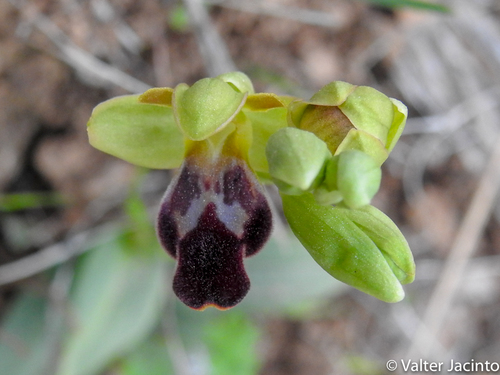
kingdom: Plantae
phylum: Tracheophyta
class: Liliopsida
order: Asparagales
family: Orchidaceae
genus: Ophrys
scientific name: Ophrys fusca
